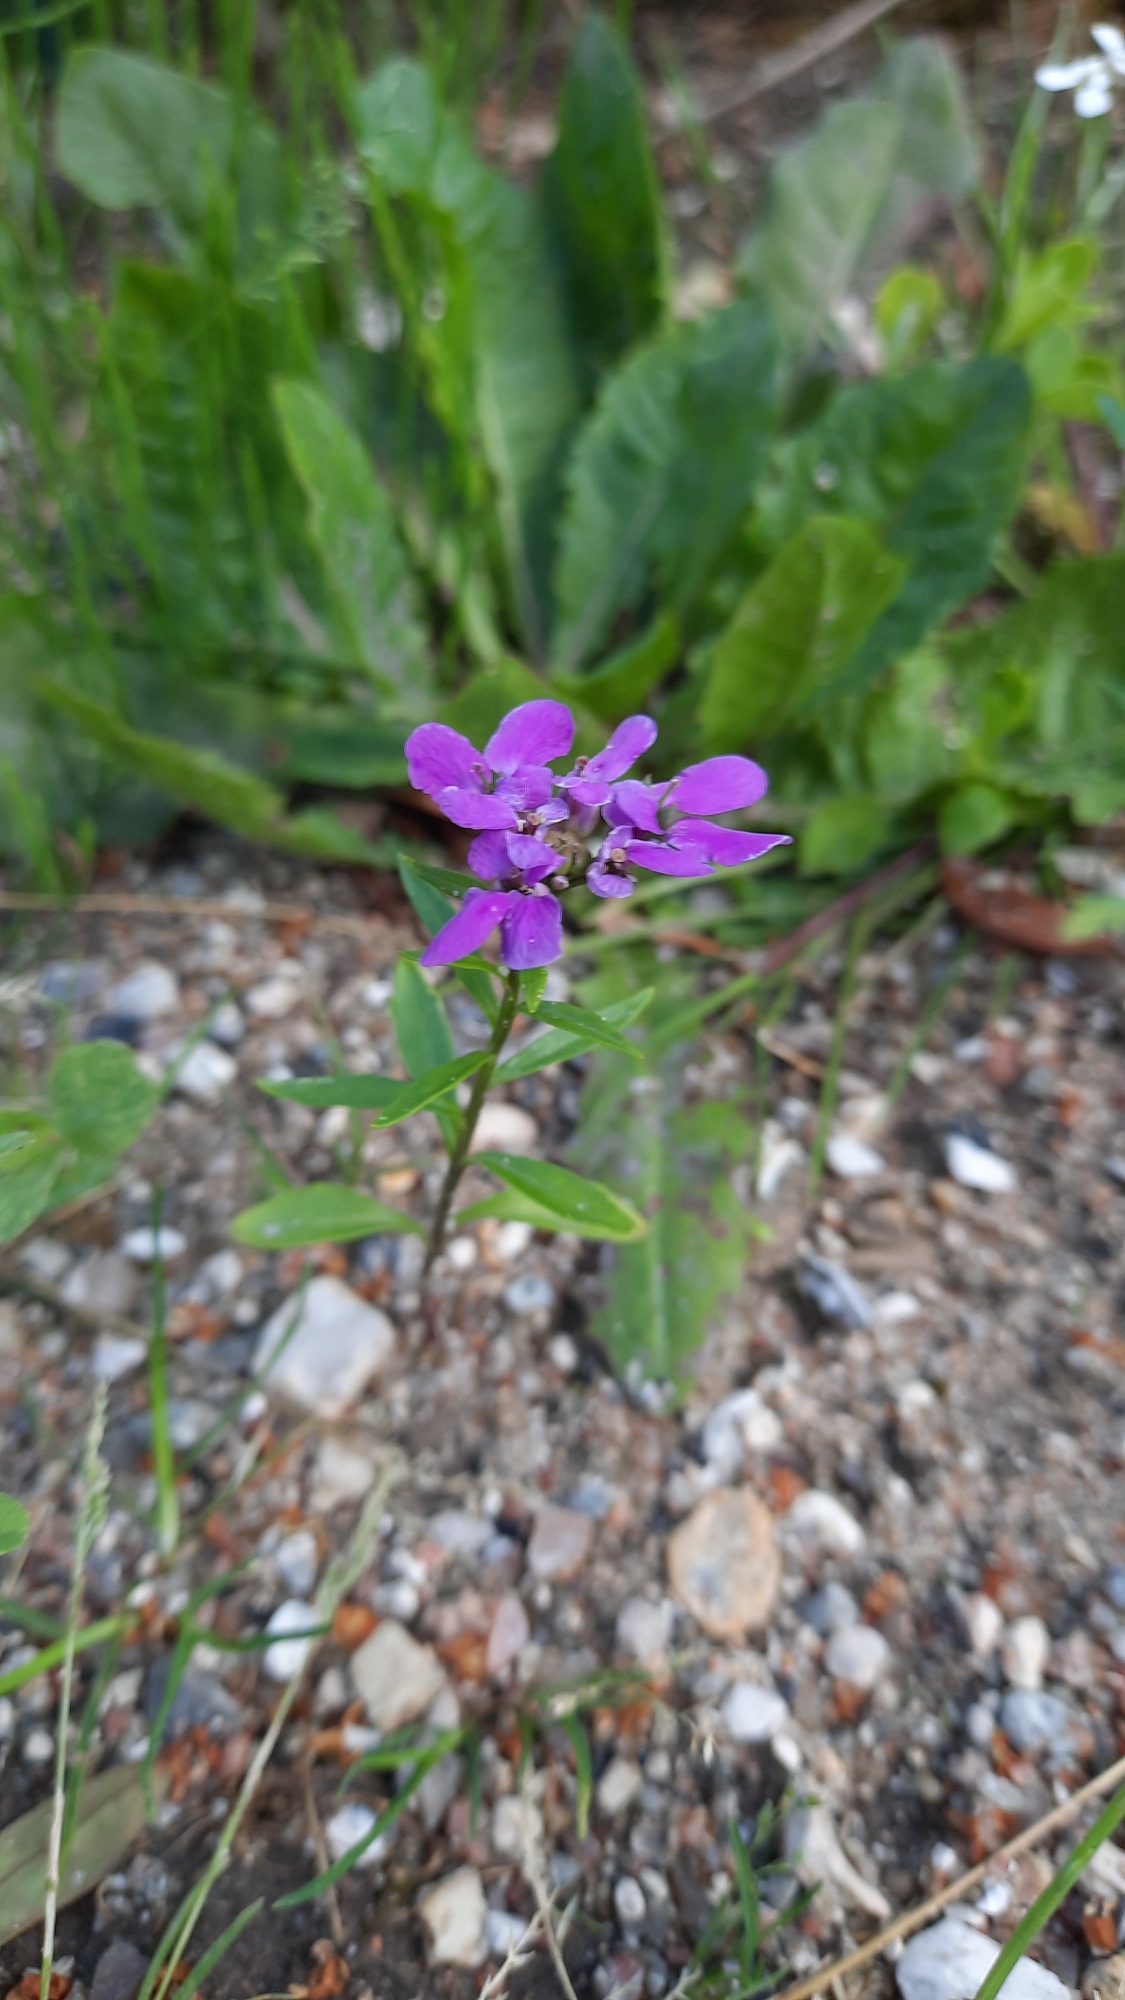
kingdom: Plantae
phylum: Tracheophyta
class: Magnoliopsida
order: Brassicales
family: Brassicaceae
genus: Iberis
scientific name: Iberis umbellata
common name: Skærm-sløjfeblomst
